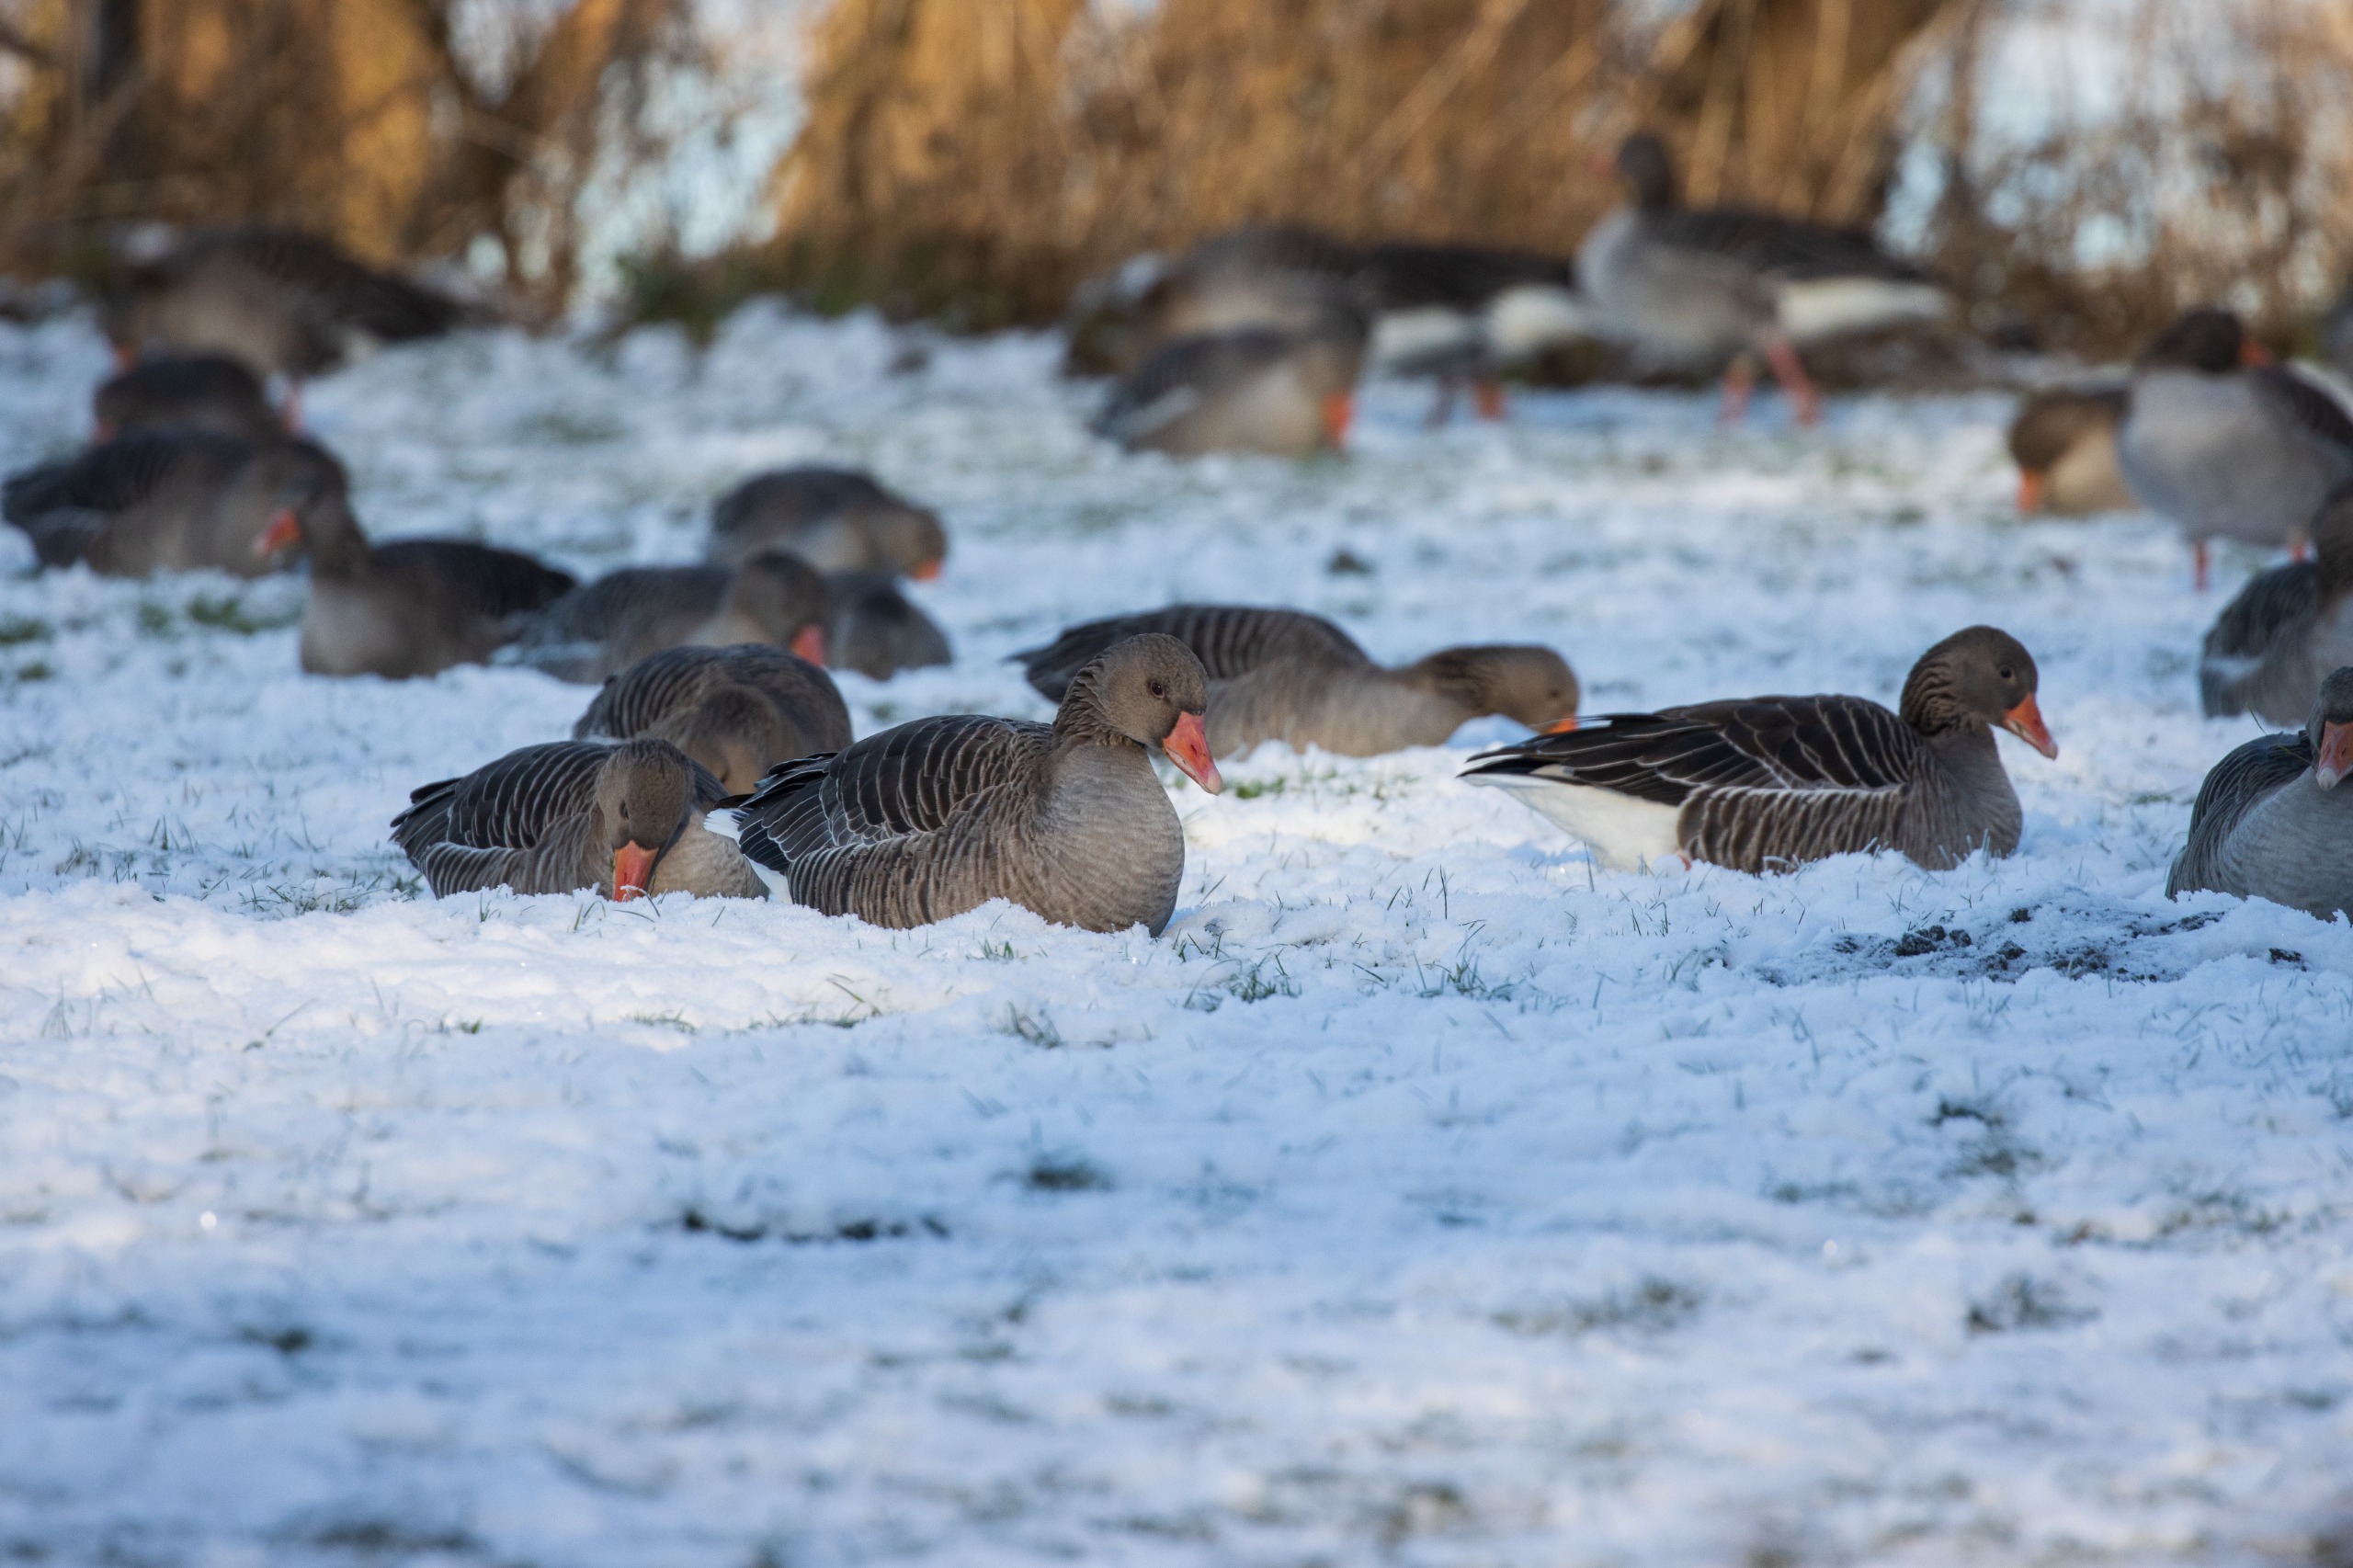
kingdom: Animalia
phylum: Chordata
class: Aves
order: Anseriformes
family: Anatidae
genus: Anser
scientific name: Anser anser
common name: Grågås
